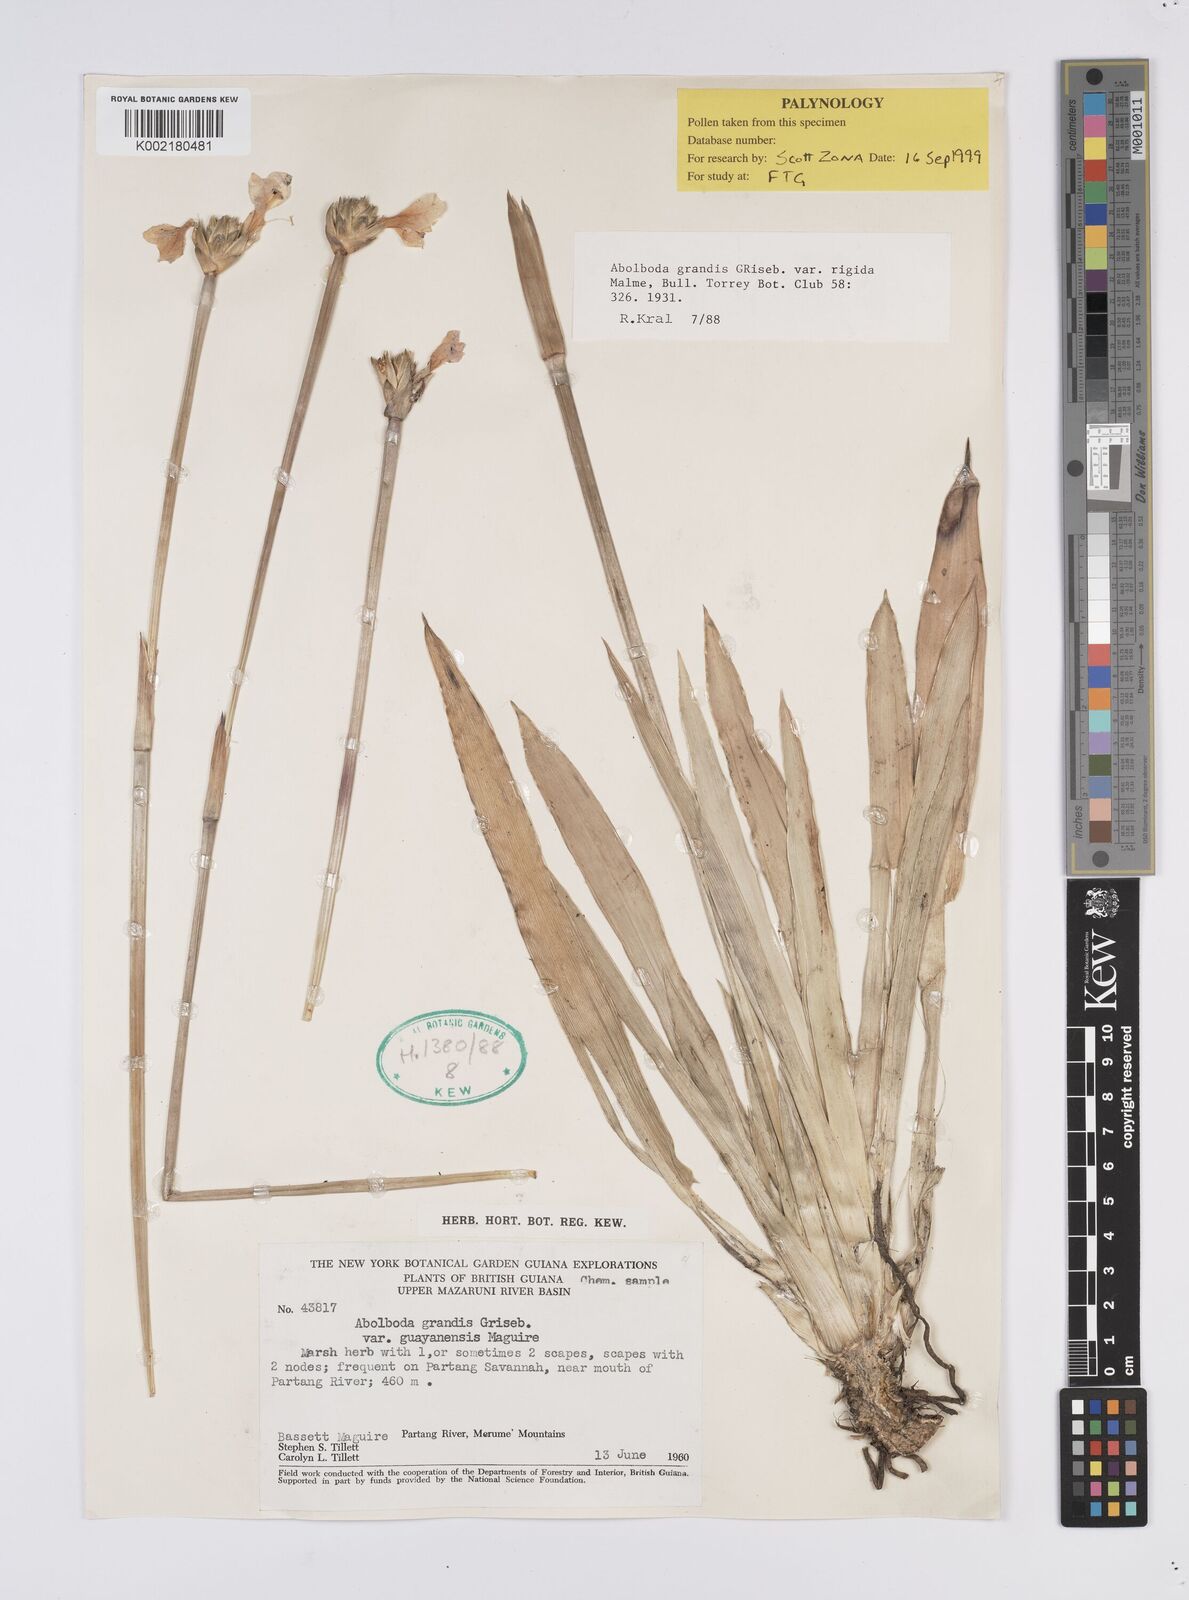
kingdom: Plantae
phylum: Tracheophyta
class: Liliopsida
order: Poales
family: Xyridaceae
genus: Abolboda
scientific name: Abolboda grandis
